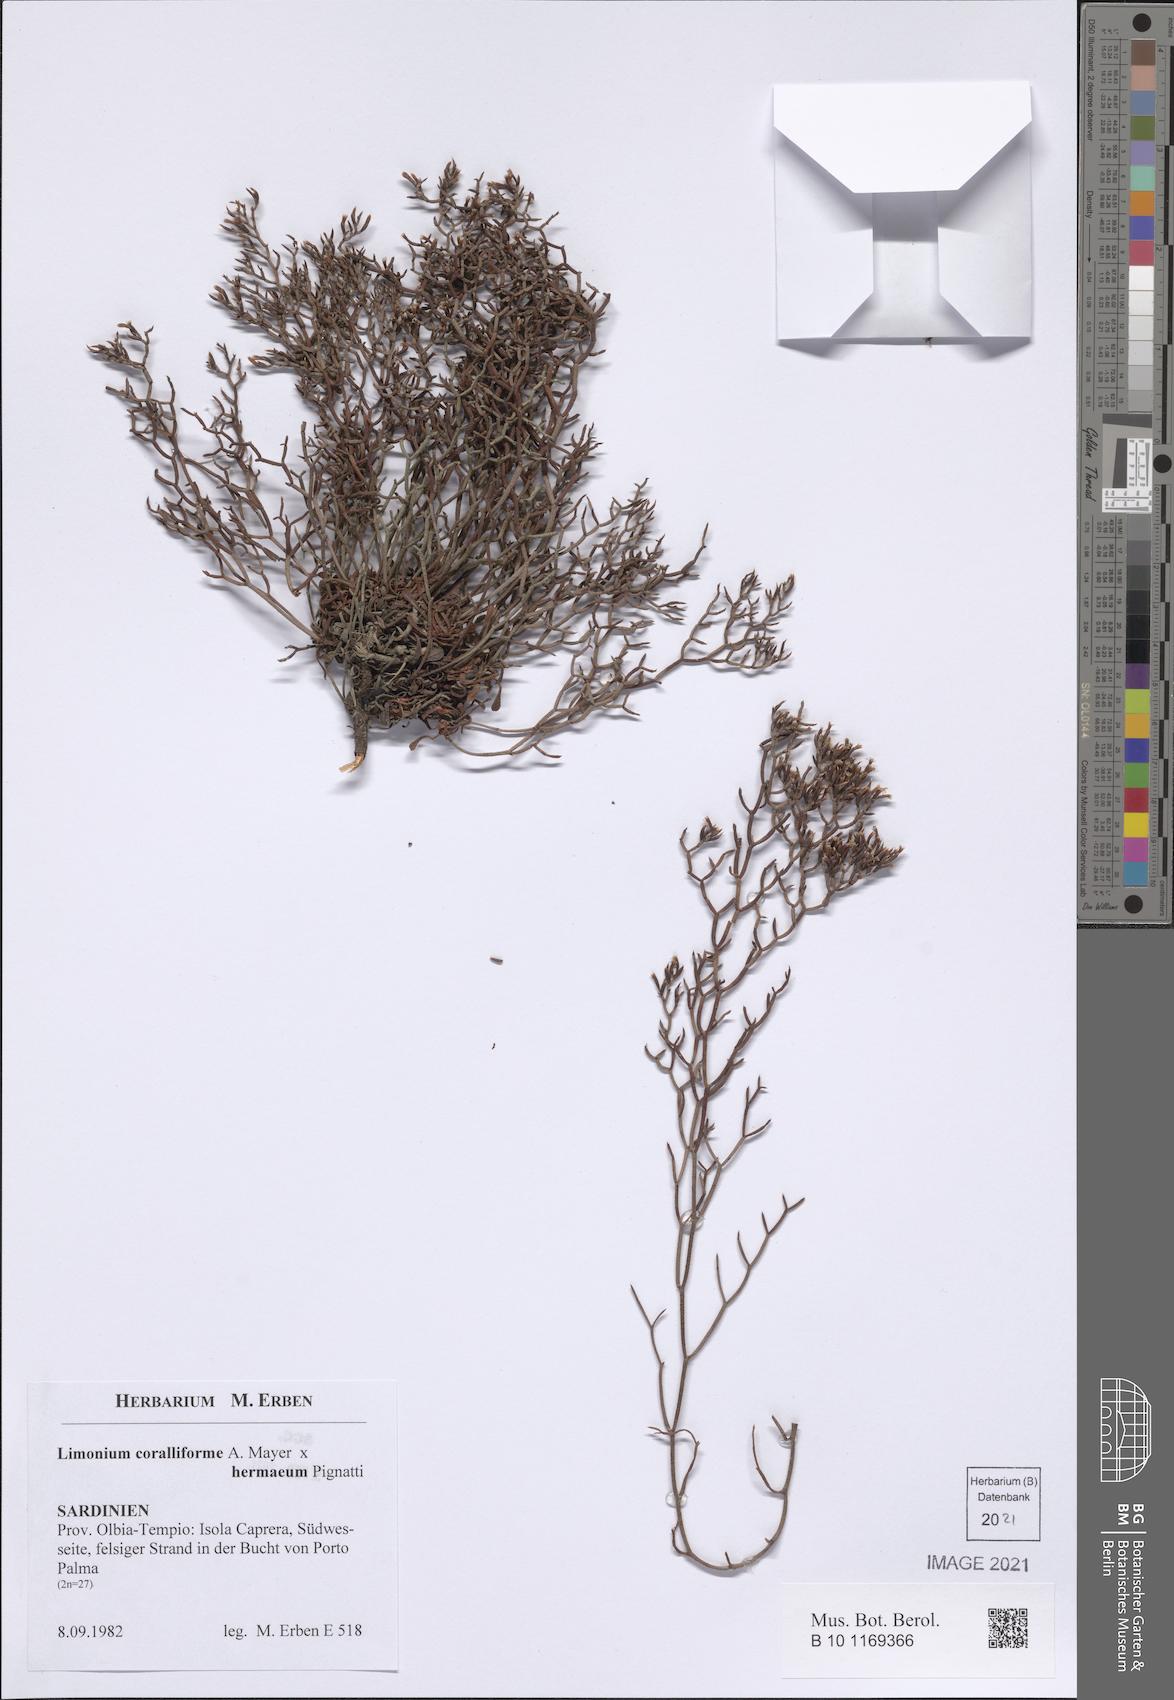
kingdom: Plantae
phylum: Tracheophyta
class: Magnoliopsida
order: Caryophyllales
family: Plumbaginaceae
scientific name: Plumbaginaceae
